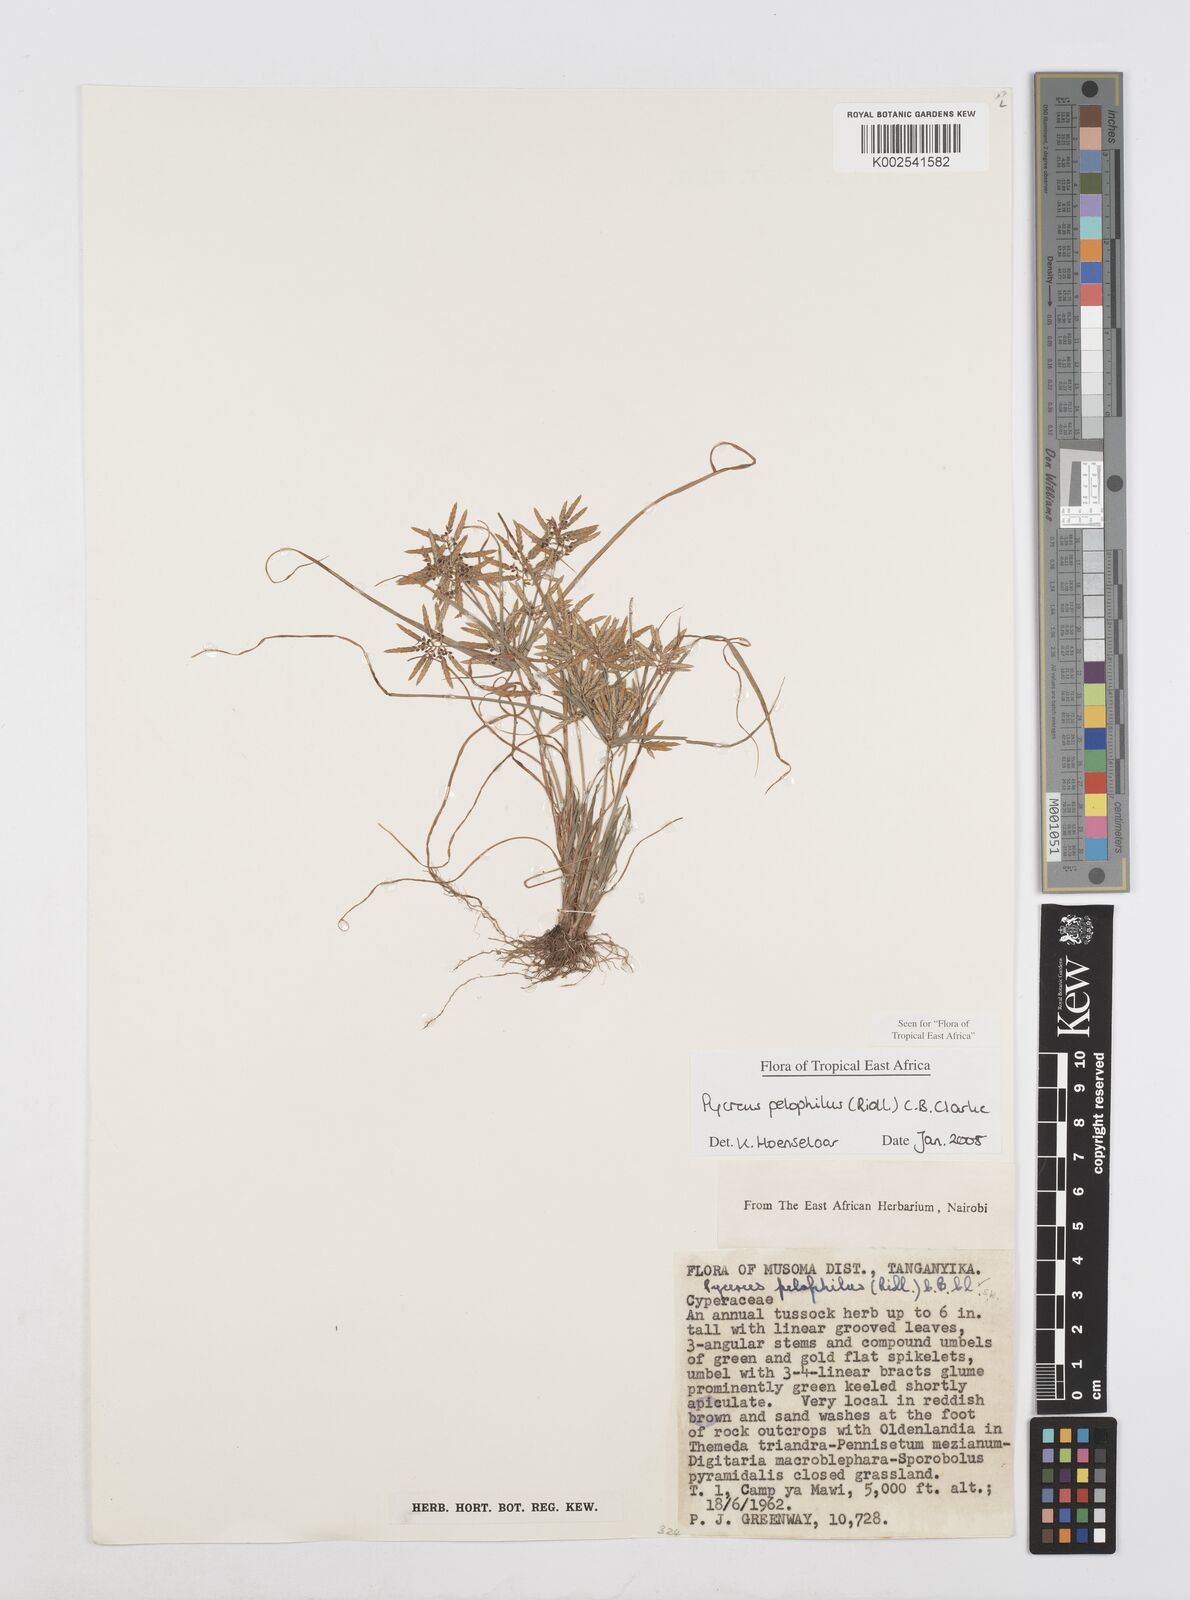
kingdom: Plantae
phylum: Tracheophyta
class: Liliopsida
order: Poales
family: Cyperaceae
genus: Cyperus
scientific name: Cyperus pelophilus
